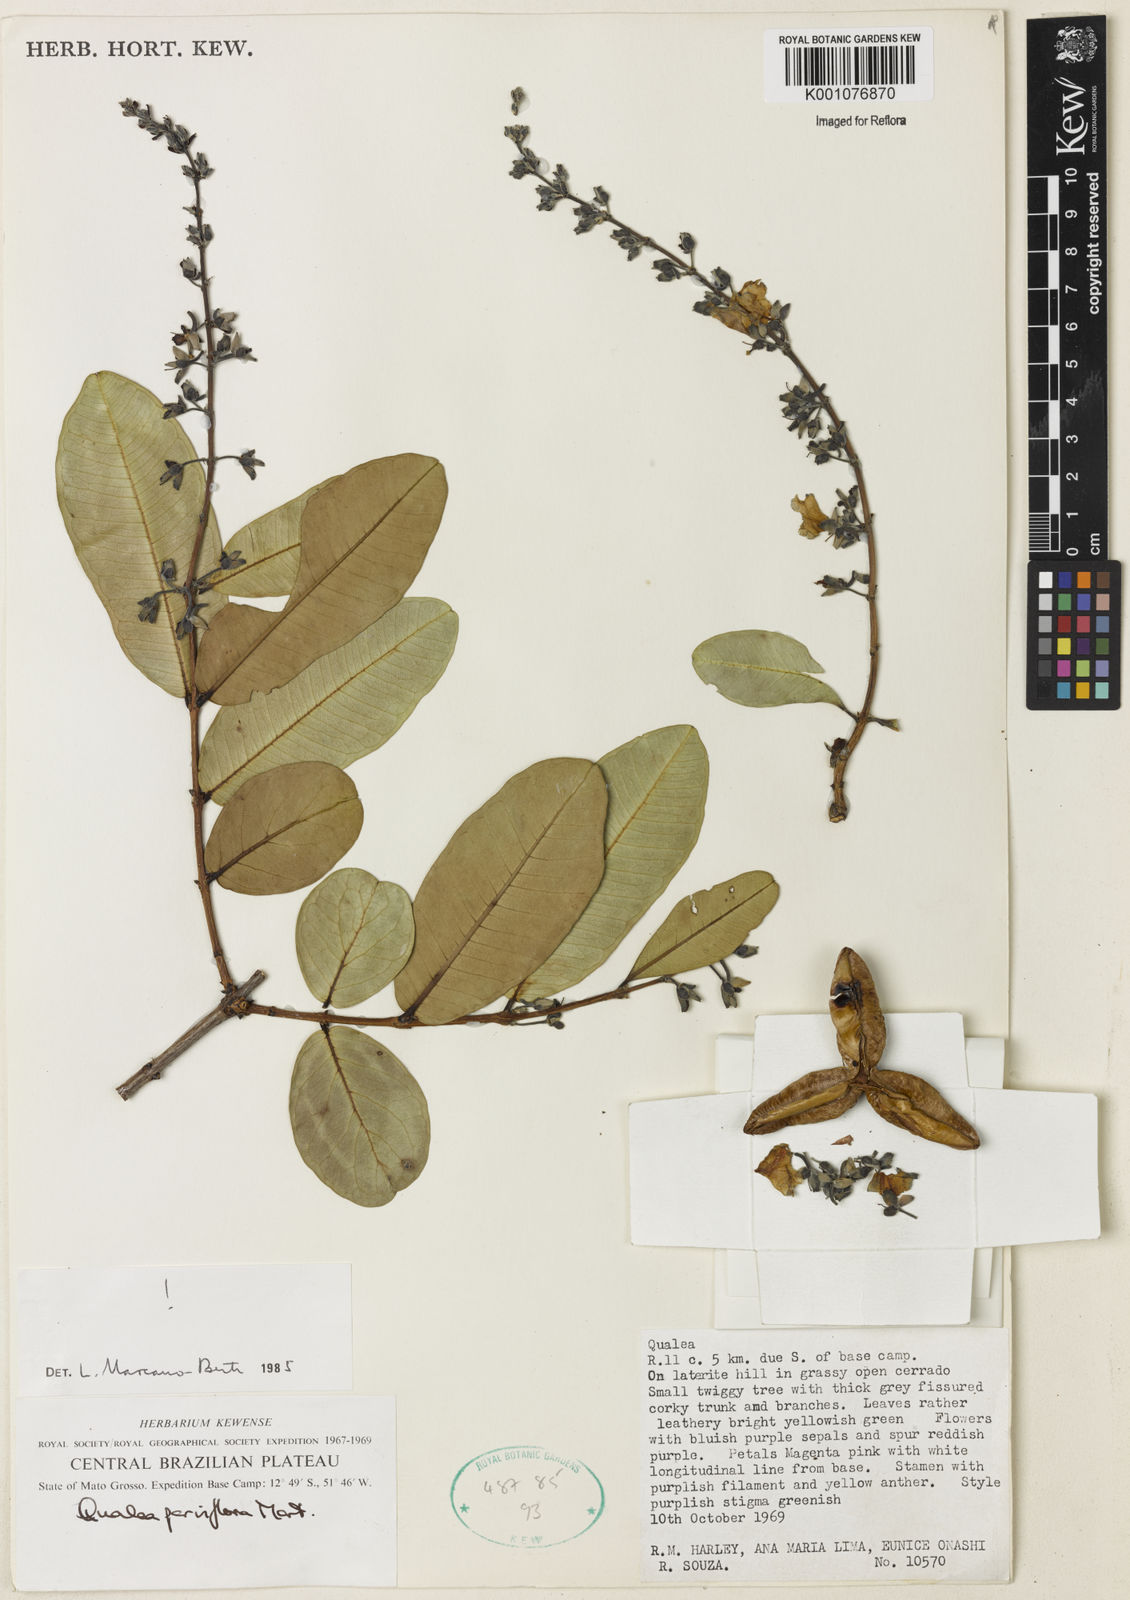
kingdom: Plantae
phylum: Tracheophyta
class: Magnoliopsida
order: Myrtales
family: Vochysiaceae
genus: Qualea
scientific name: Qualea parviflora
